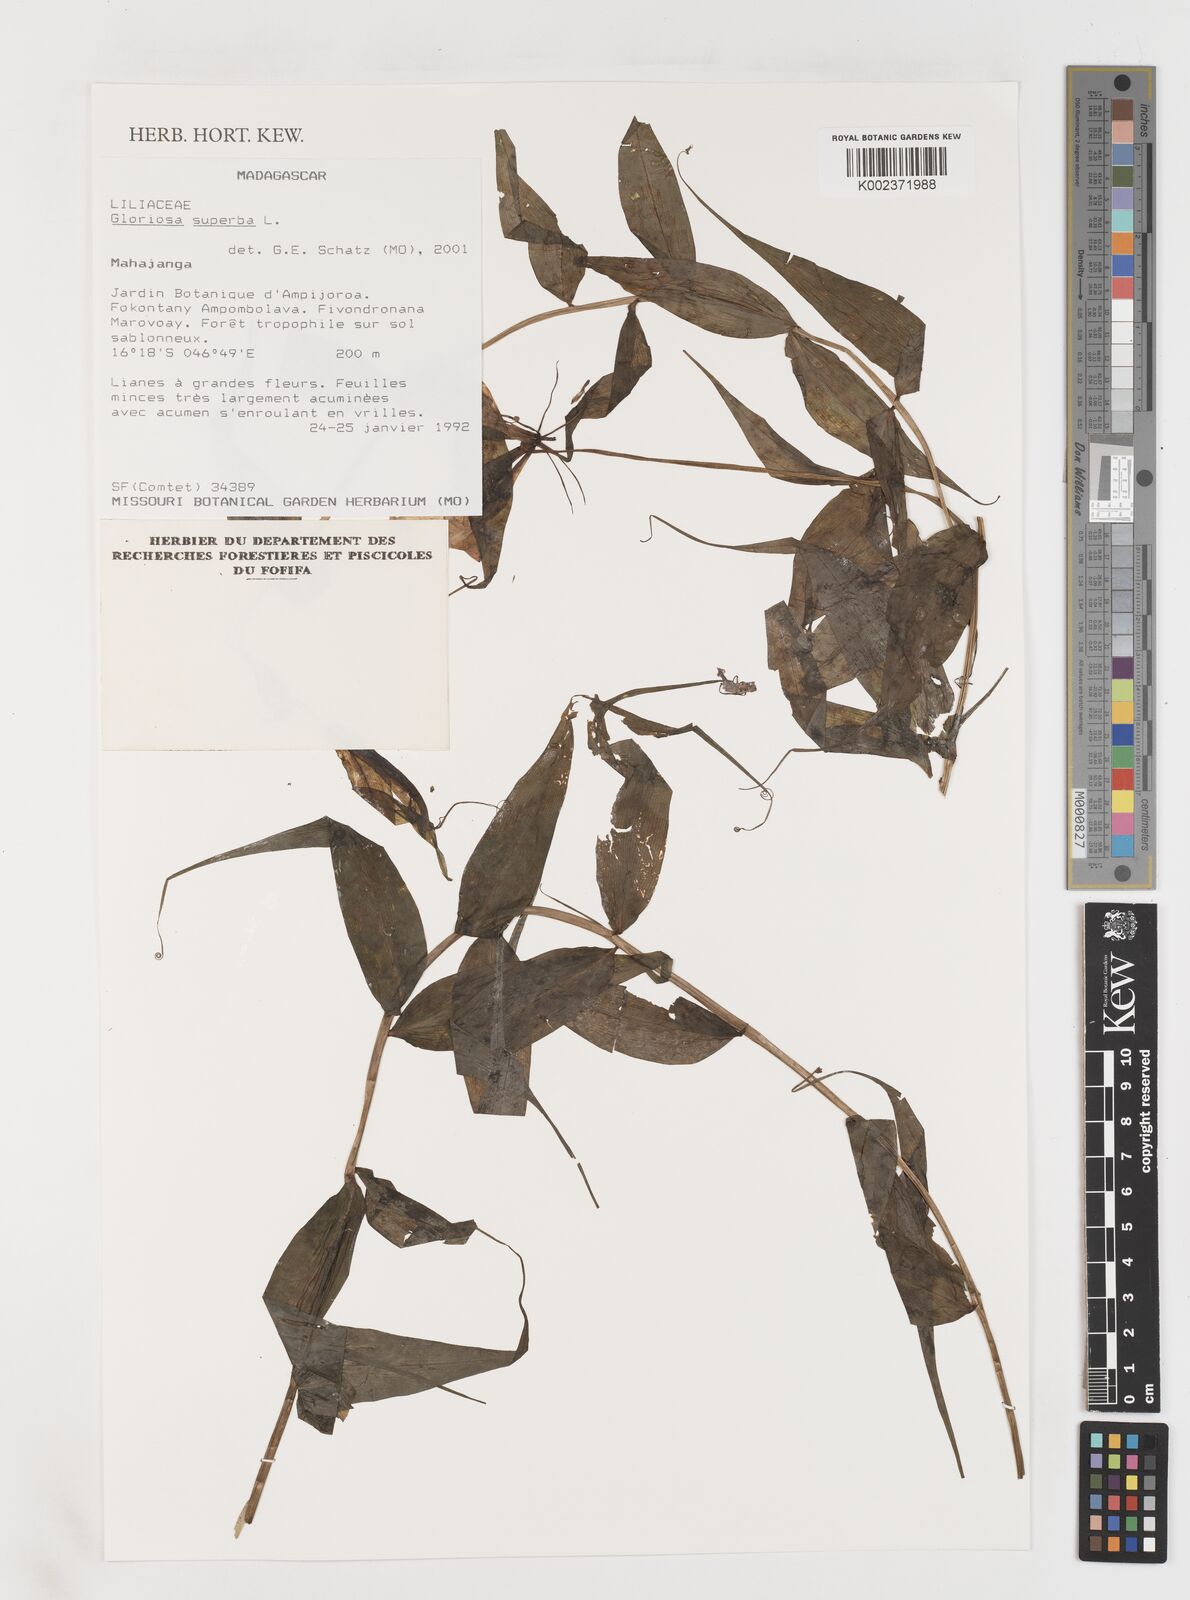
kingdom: Plantae
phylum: Tracheophyta
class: Liliopsida
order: Liliales
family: Colchicaceae
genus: Gloriosa
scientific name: Gloriosa simplex
